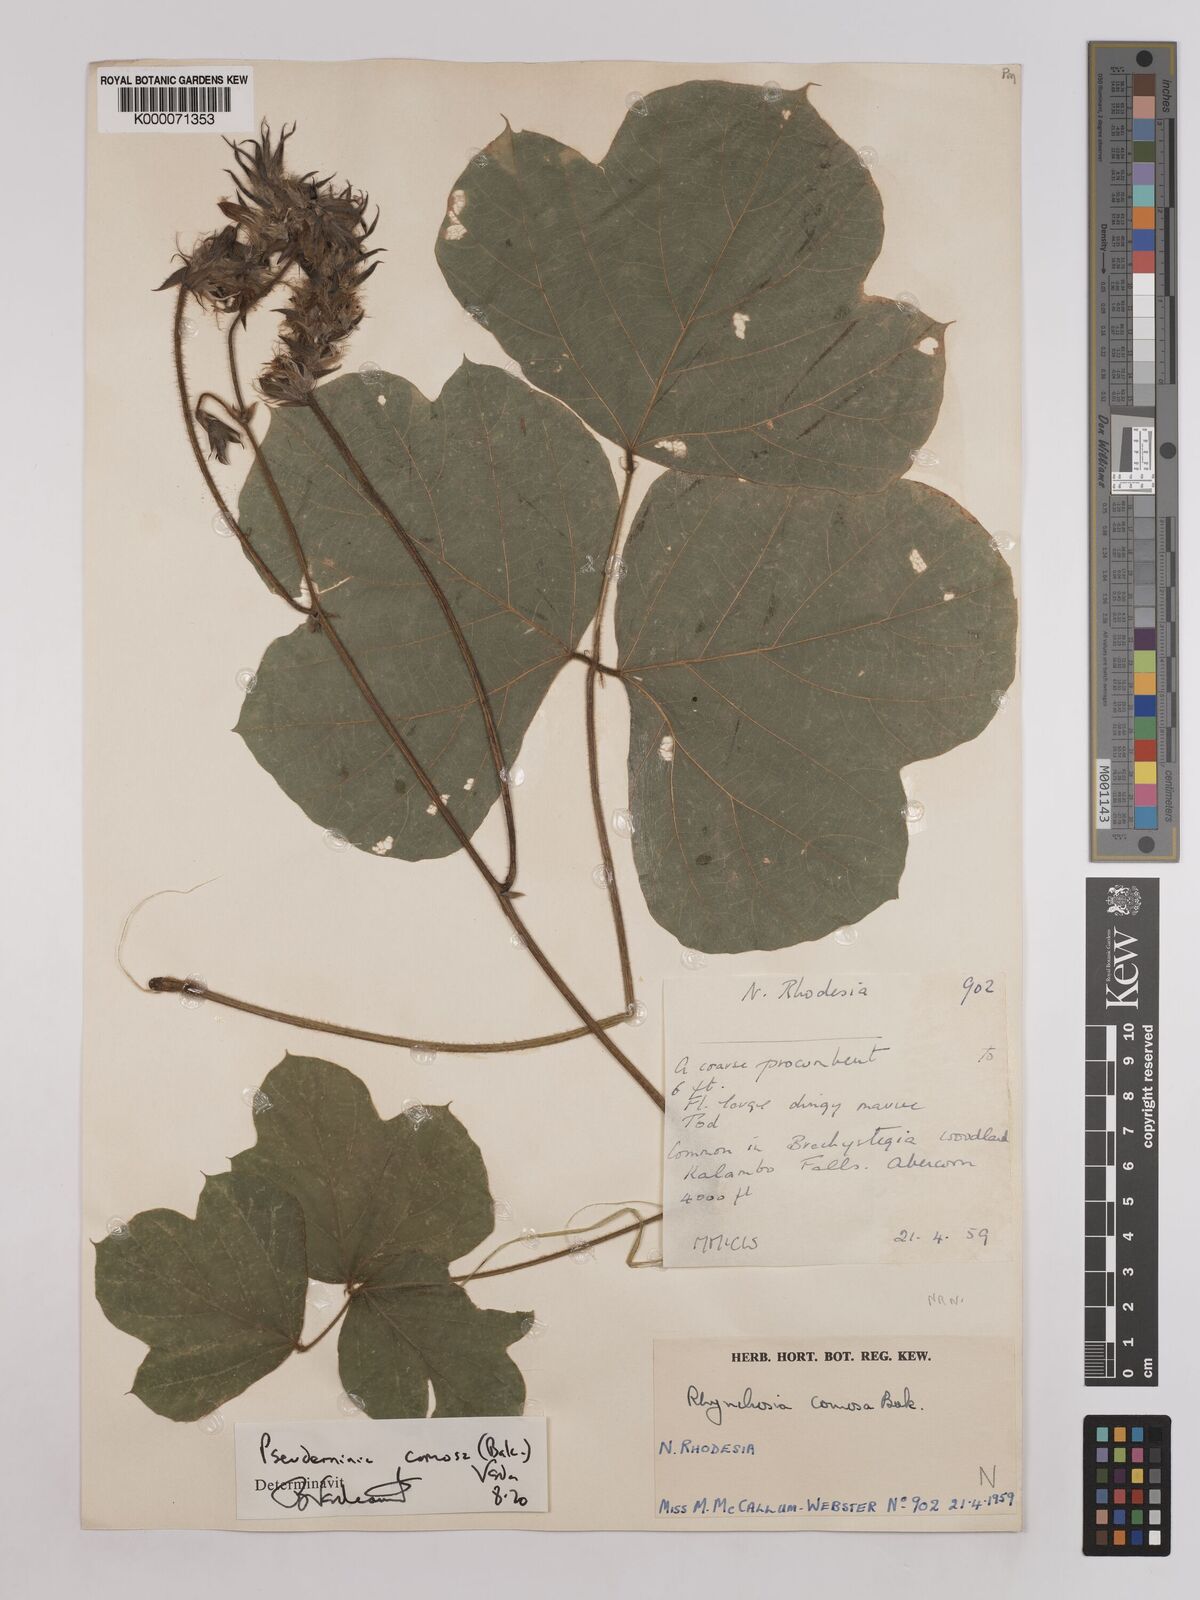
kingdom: Plantae
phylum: Tracheophyta
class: Magnoliopsida
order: Fabales
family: Fabaceae
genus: Pseudeminia
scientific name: Pseudeminia comosa
